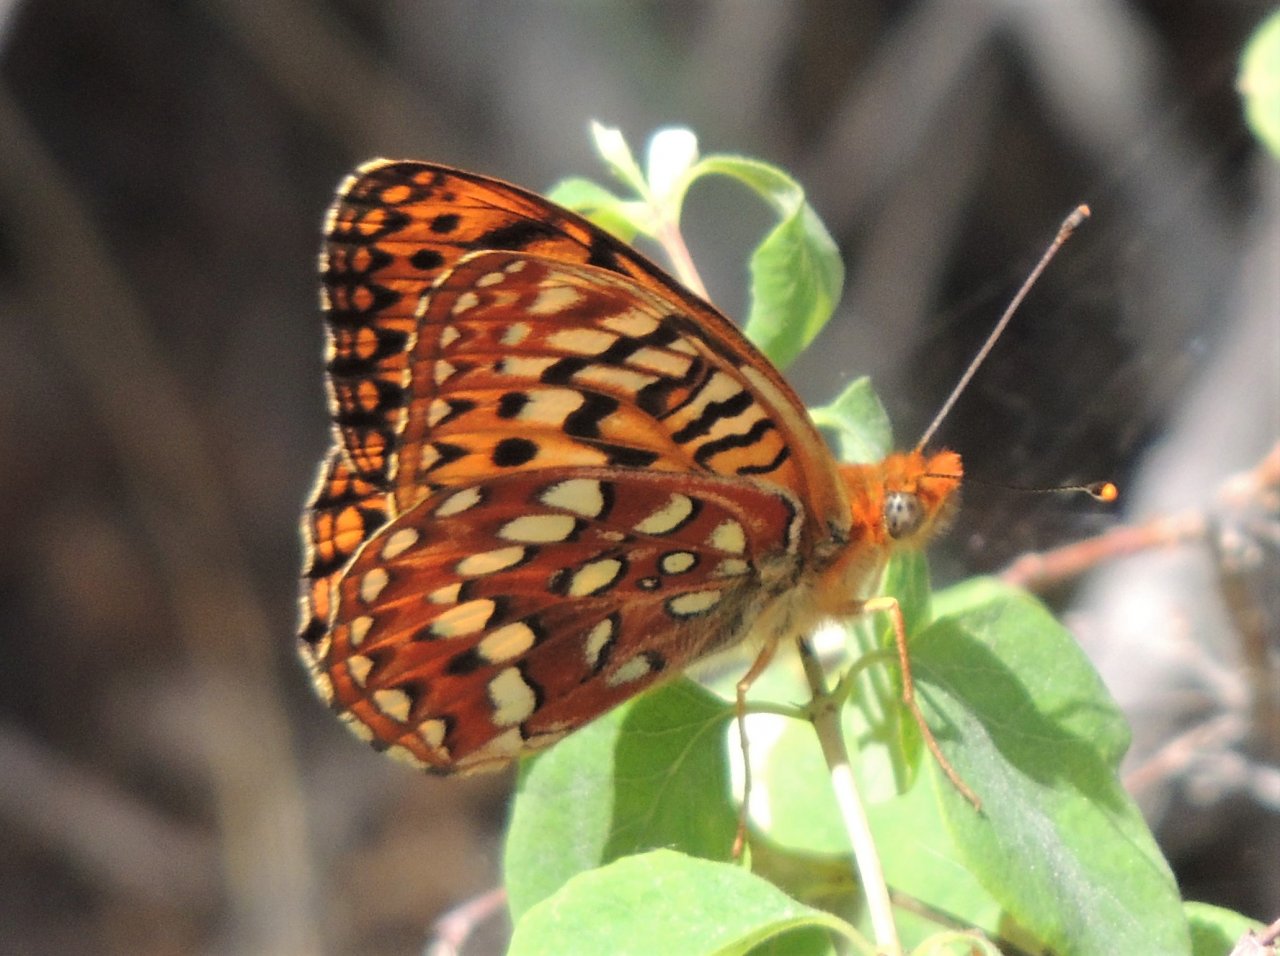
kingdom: Animalia
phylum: Arthropoda
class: Insecta
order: Lepidoptera
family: Nymphalidae
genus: Speyeria
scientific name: Speyeria hydaspe
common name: Hydaspe Fritillary
